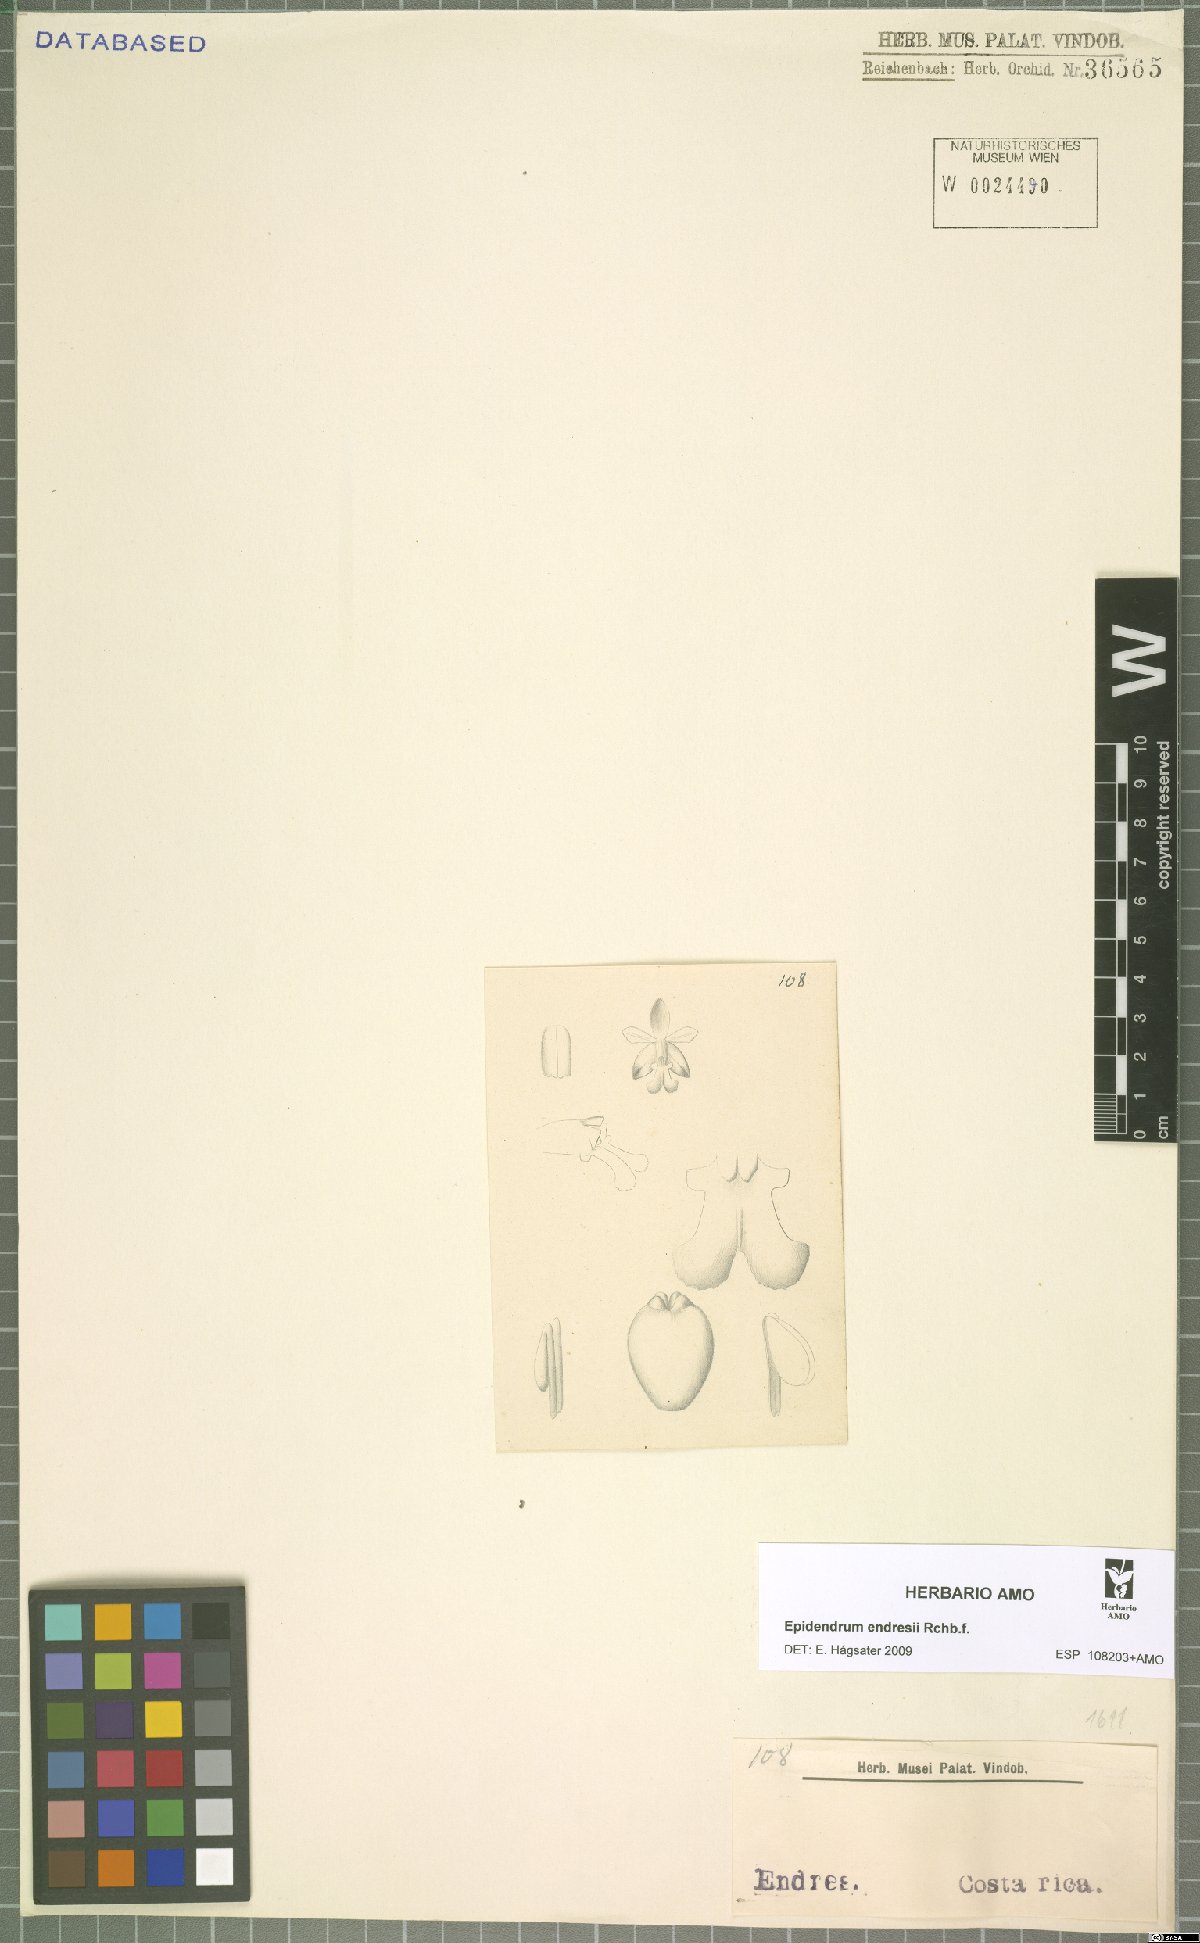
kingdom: Plantae
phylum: Tracheophyta
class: Liliopsida
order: Asparagales
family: Orchidaceae
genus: Epidendrum
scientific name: Epidendrum endresii
